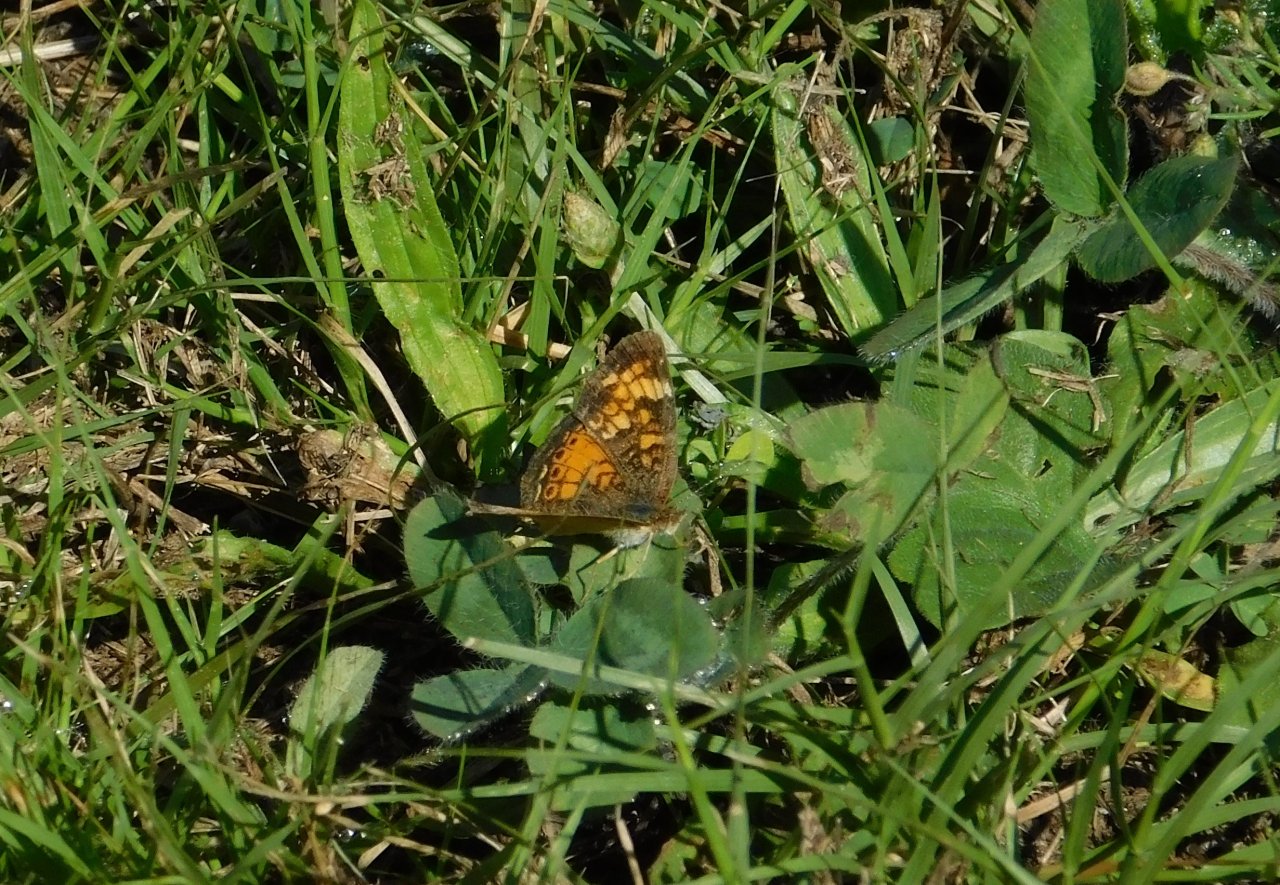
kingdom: Animalia
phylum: Arthropoda
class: Insecta
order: Lepidoptera
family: Nymphalidae
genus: Phyciodes
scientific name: Phyciodes tharos
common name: Northern Crescent
